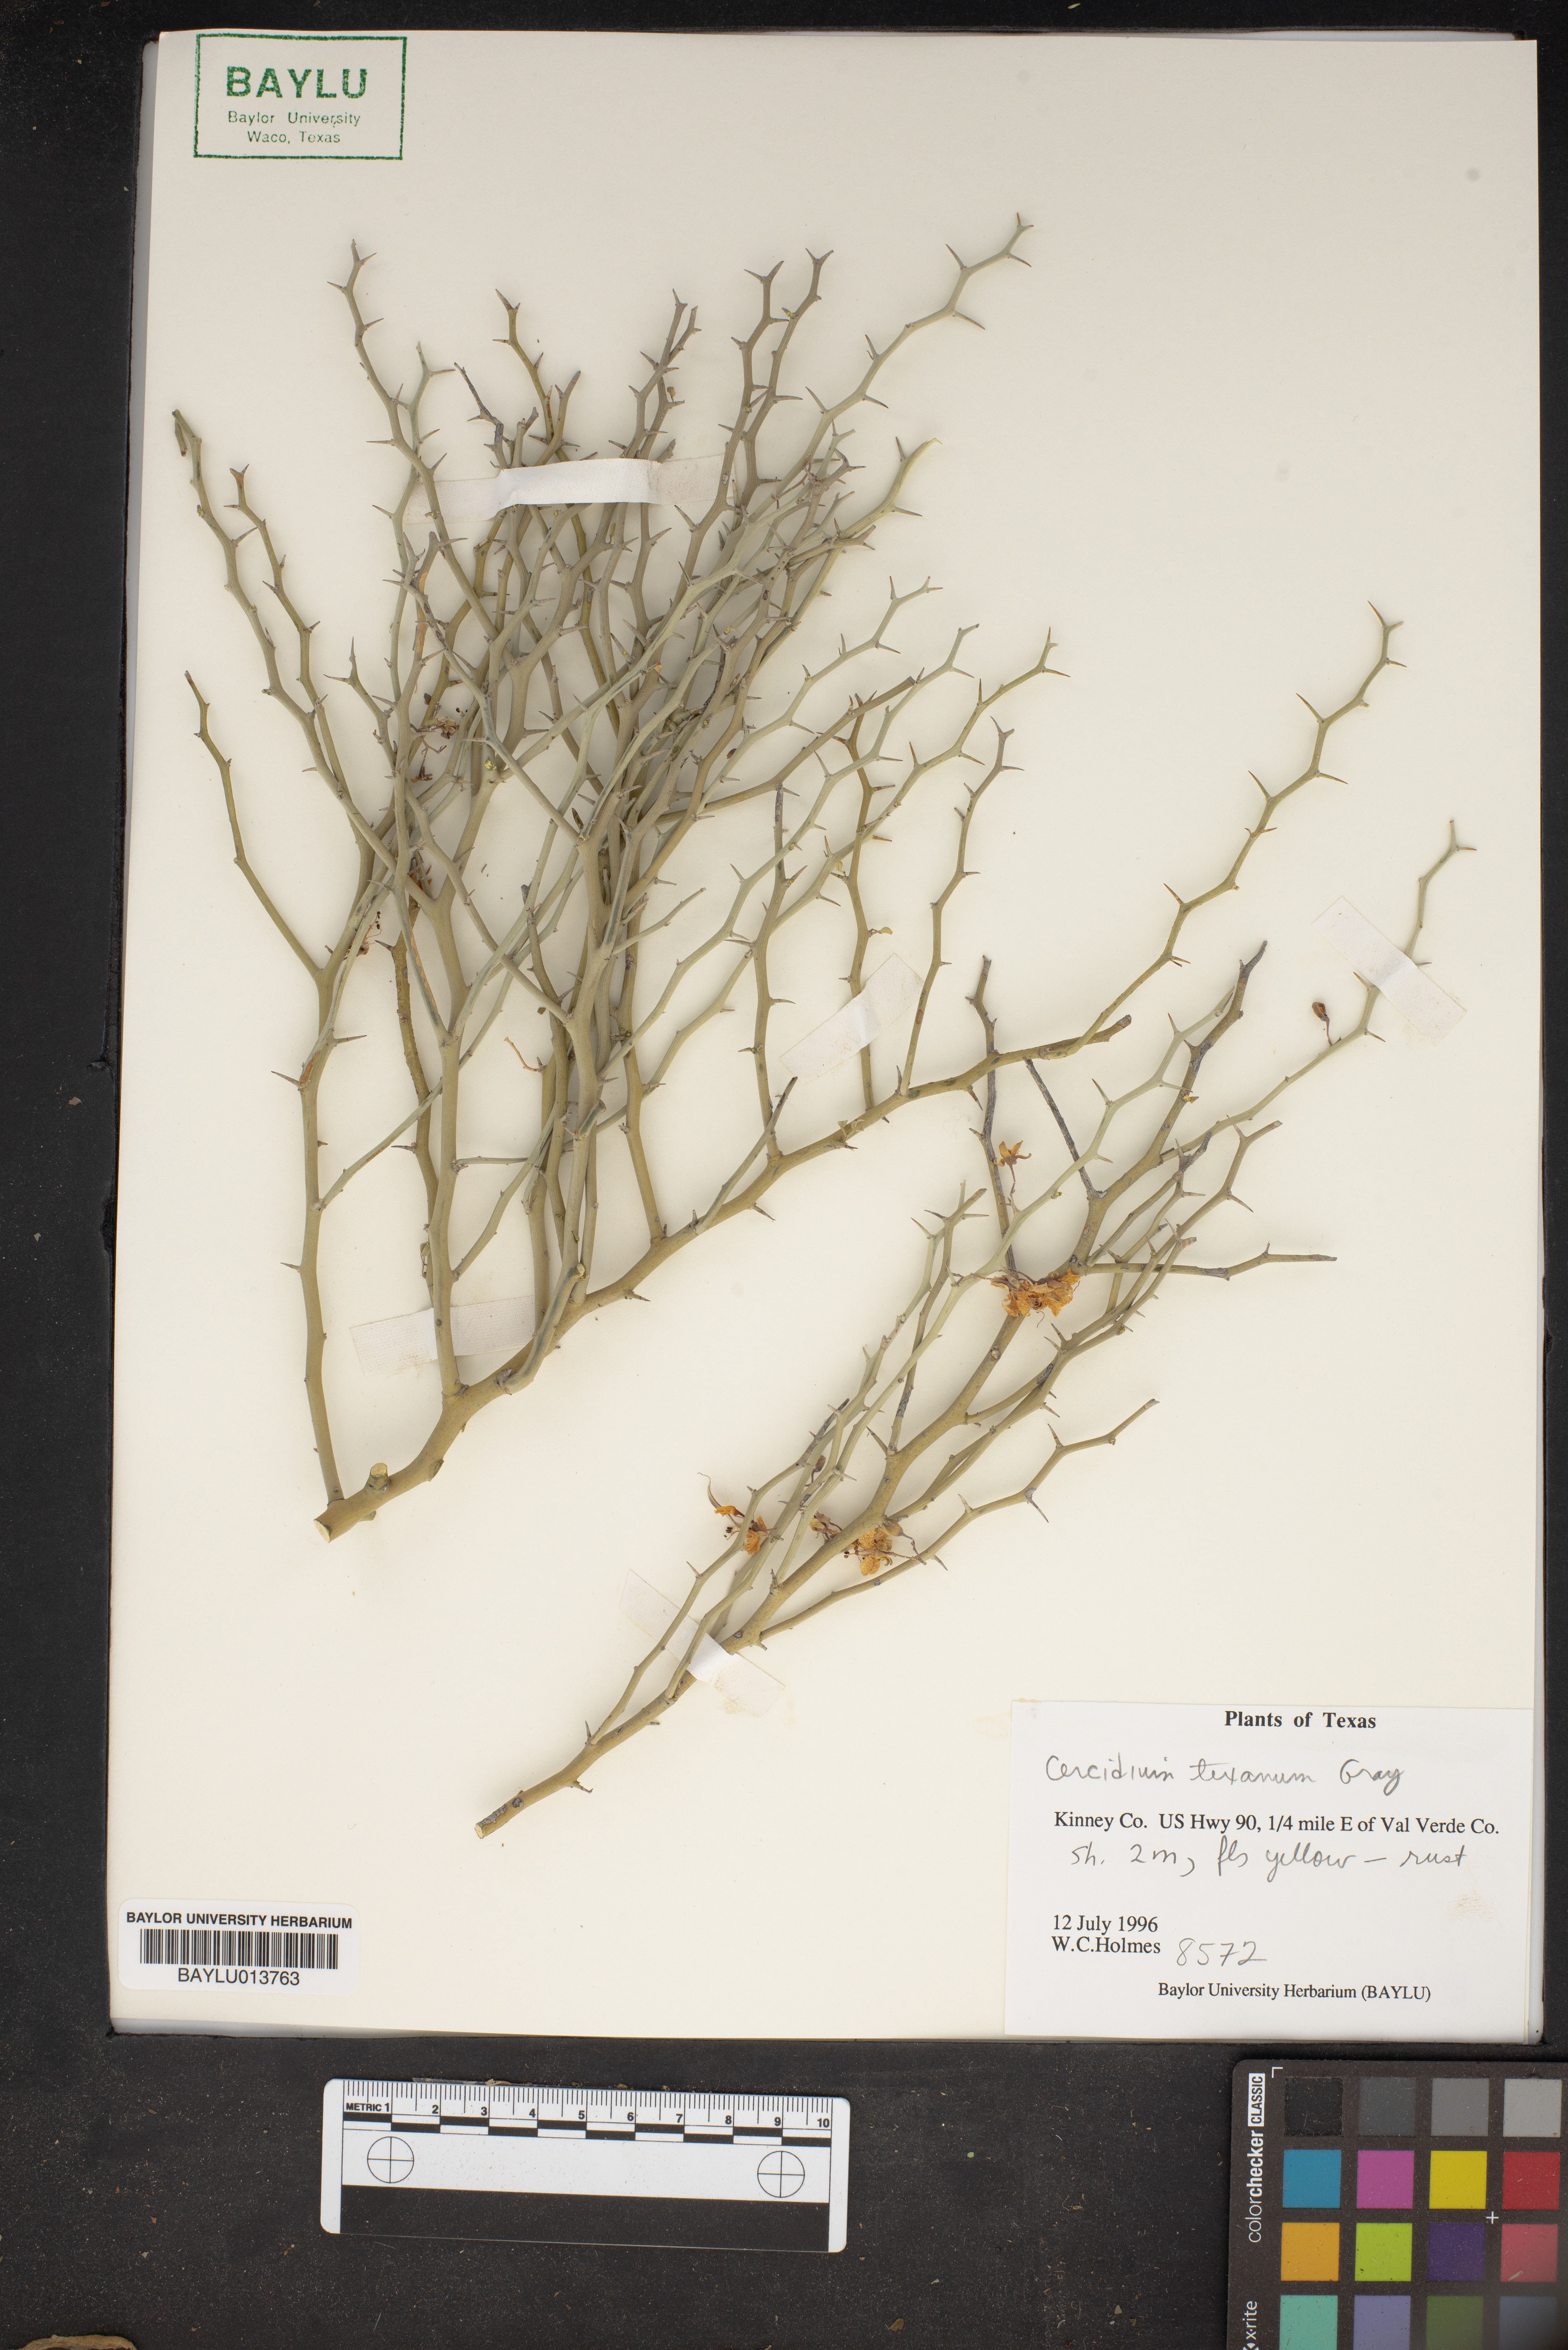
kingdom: Plantae
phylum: Tracheophyta
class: Magnoliopsida
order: Fabales
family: Fabaceae
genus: Parkinsonia
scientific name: Parkinsonia texana
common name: Texas paloverde
